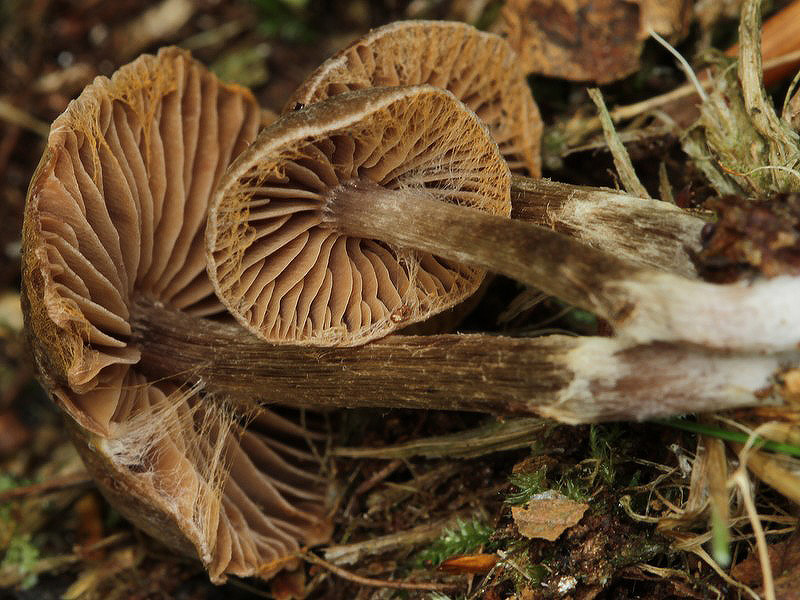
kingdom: Fungi
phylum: Basidiomycota
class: Agaricomycetes
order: Agaricales
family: Cortinariaceae
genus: Cortinarius
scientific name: Cortinarius umbrinolens
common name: mørk slørhat
